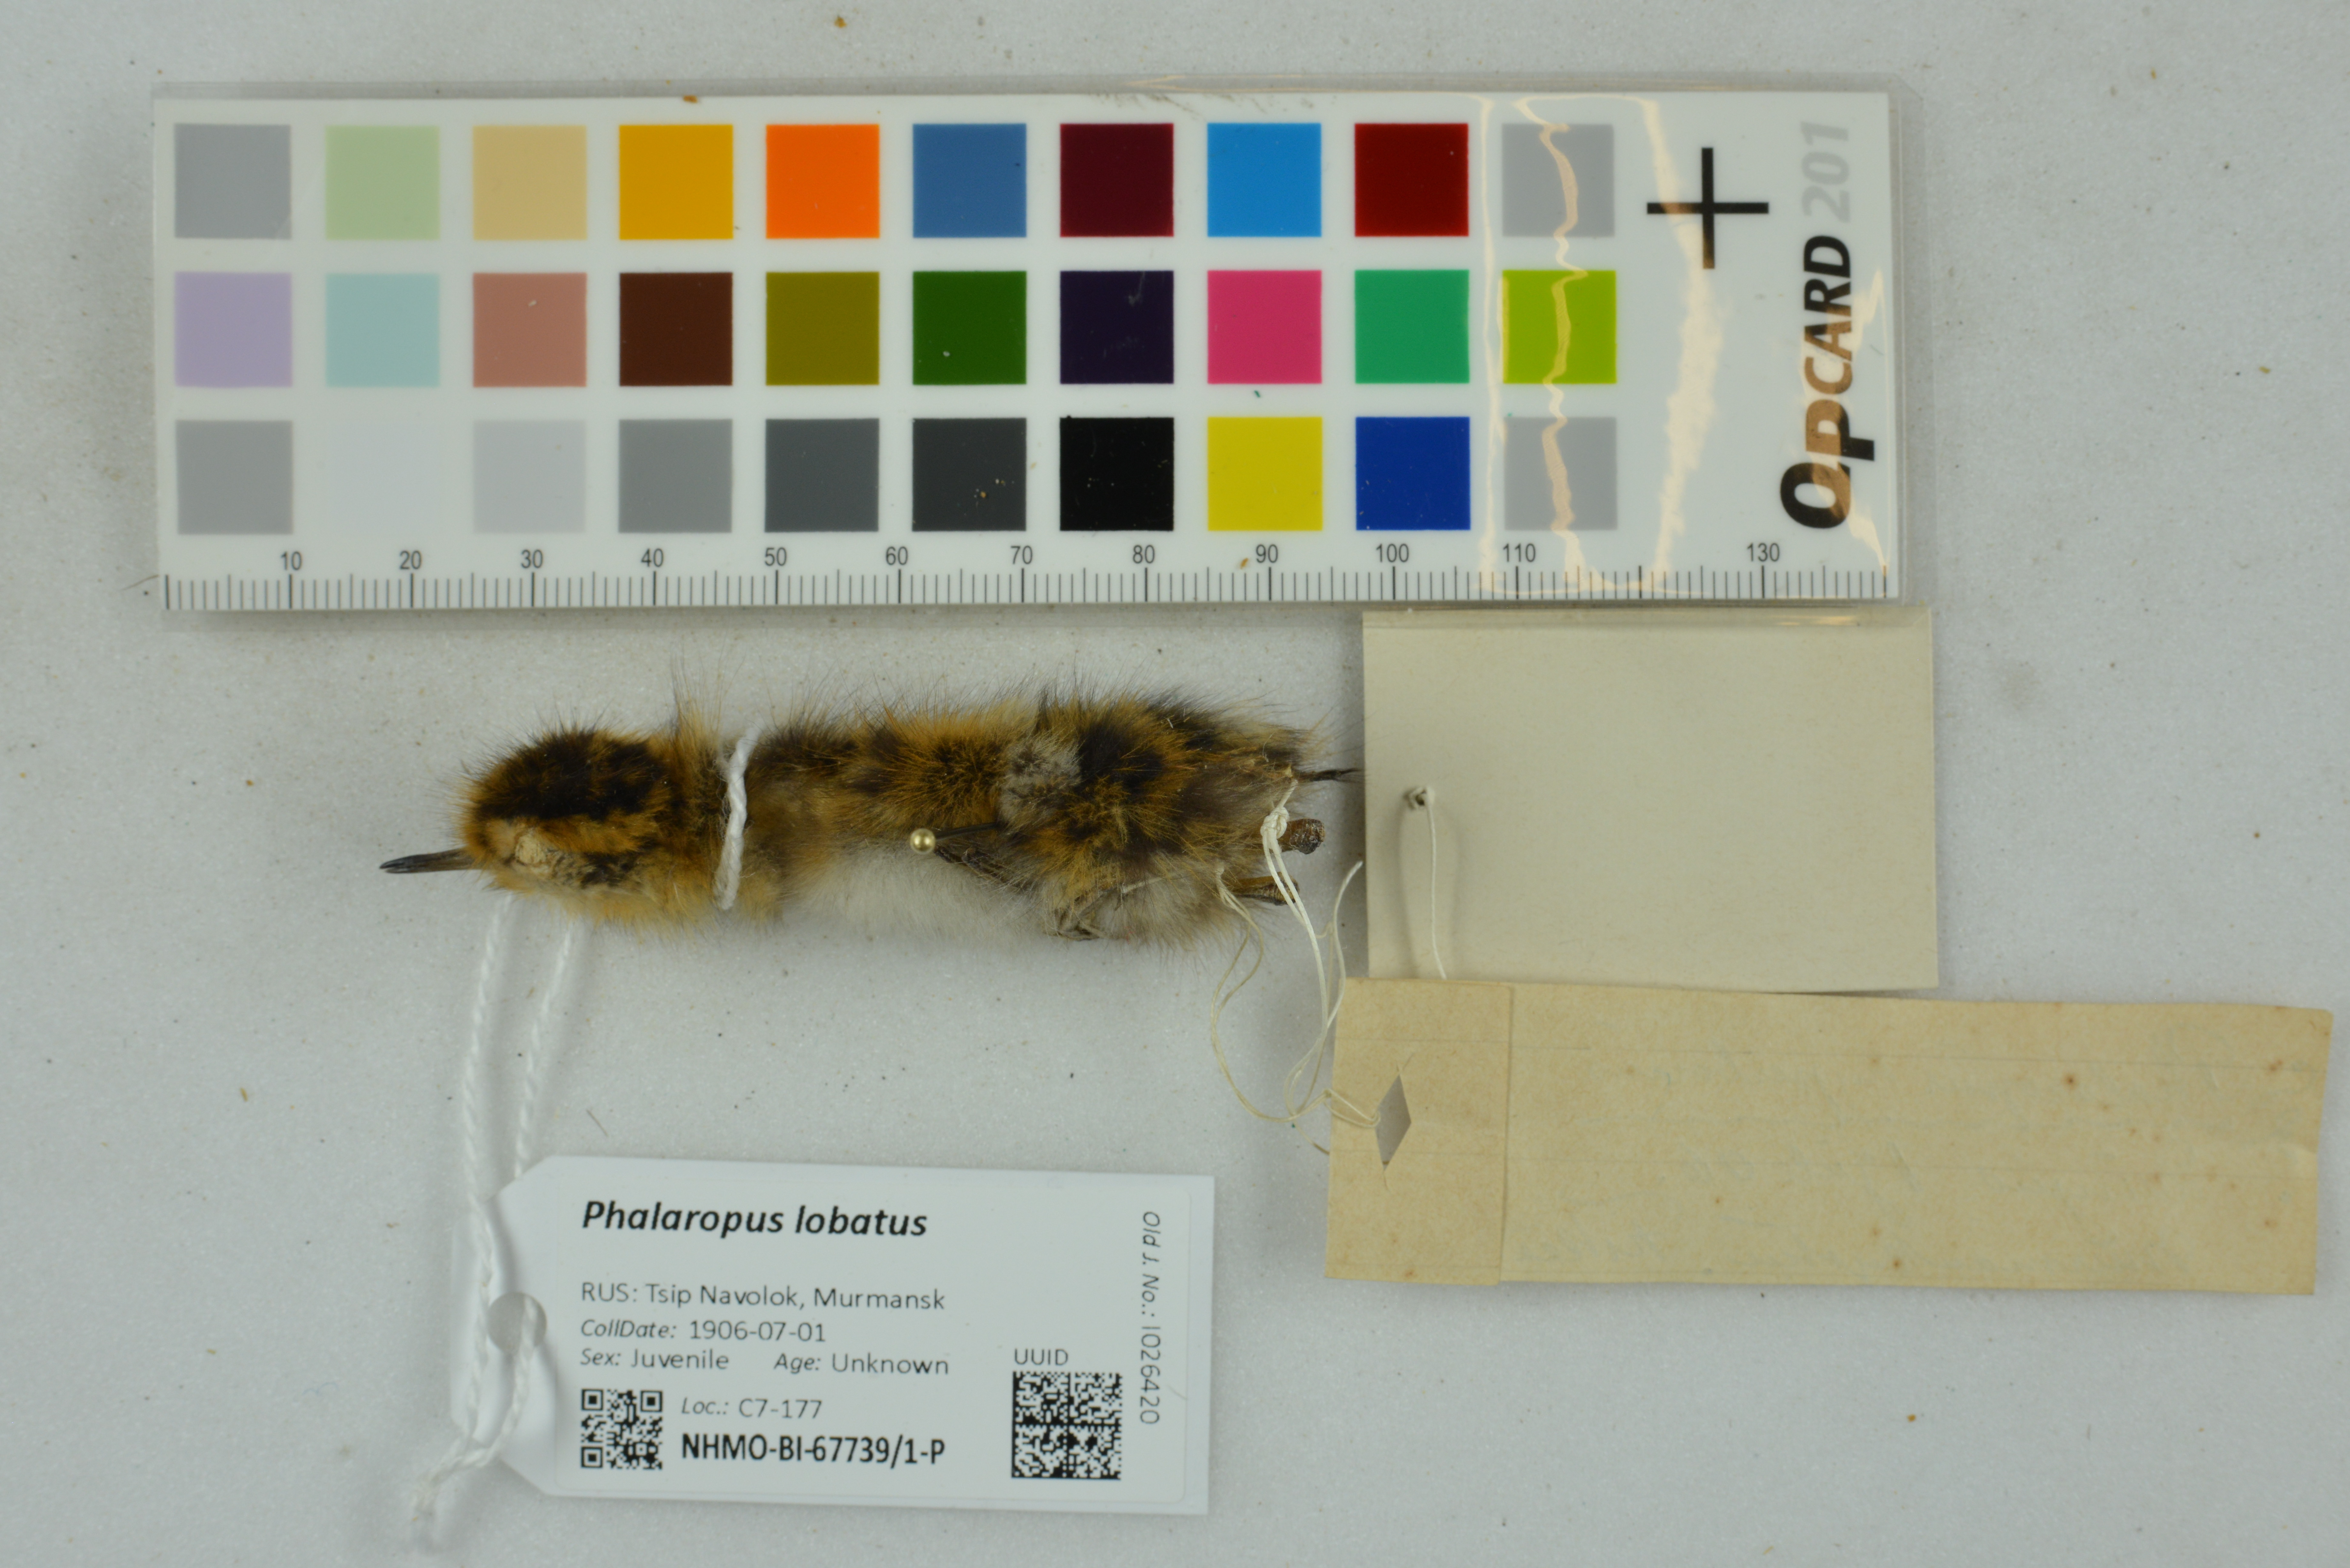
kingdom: Animalia
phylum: Chordata
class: Aves
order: Charadriiformes
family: Scolopacidae
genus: Phalaropus
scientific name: Phalaropus lobatus
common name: Red-necked phalarope
